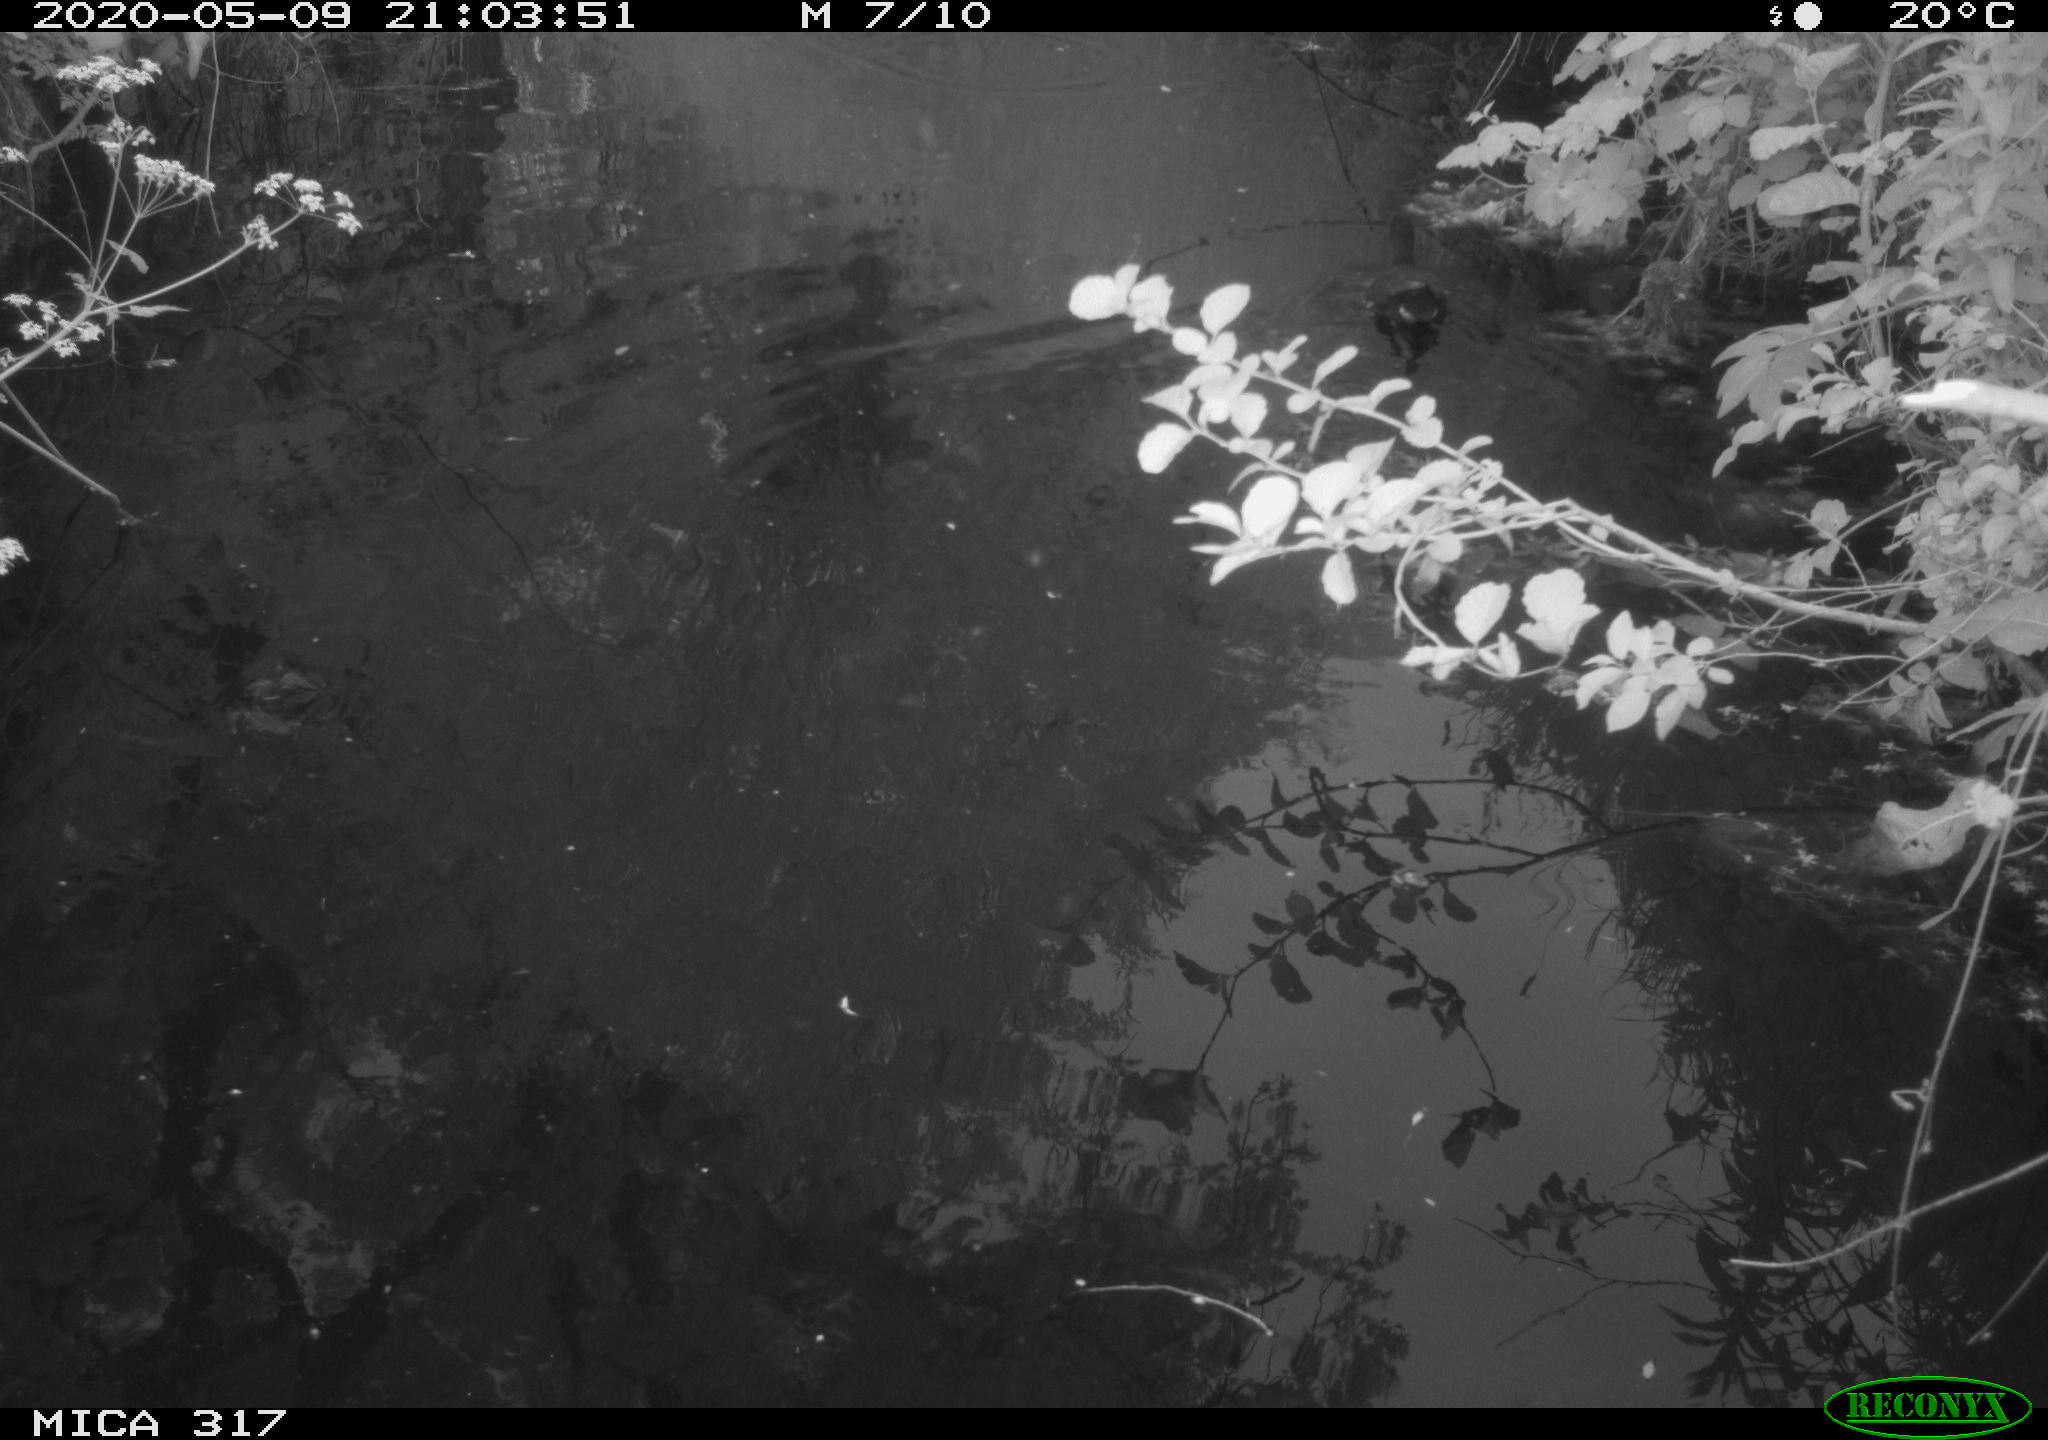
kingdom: Animalia
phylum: Chordata
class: Aves
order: Gruiformes
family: Rallidae
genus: Gallinula
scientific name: Gallinula chloropus
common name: Common moorhen
